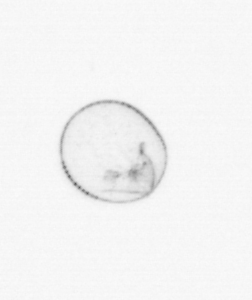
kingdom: Chromista
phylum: Myzozoa
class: Dinophyceae
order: Noctilucales
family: Noctilucaceae
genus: Noctiluca
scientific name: Noctiluca scintillans
